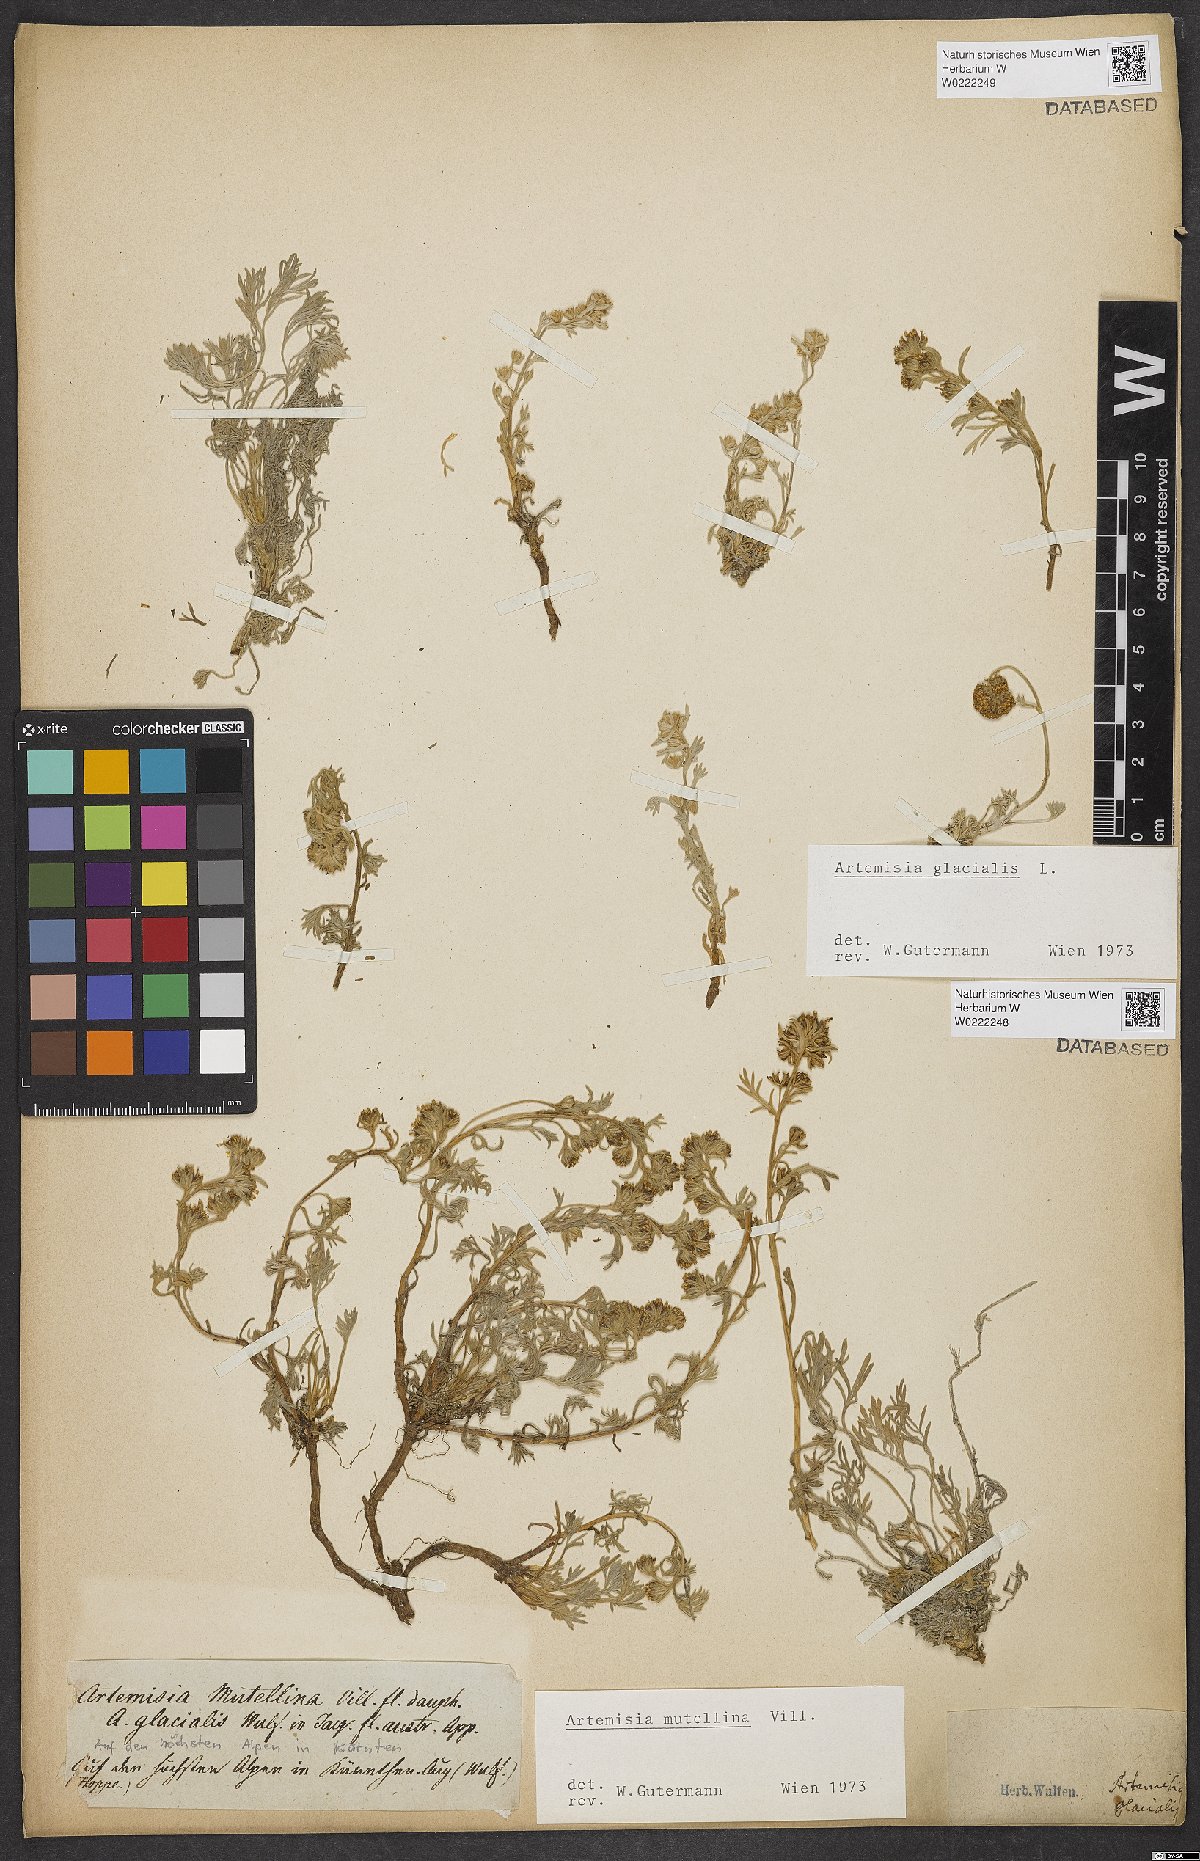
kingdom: Plantae
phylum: Tracheophyta
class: Magnoliopsida
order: Asterales
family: Asteraceae
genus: Artemisia
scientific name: Artemisia glacialis
